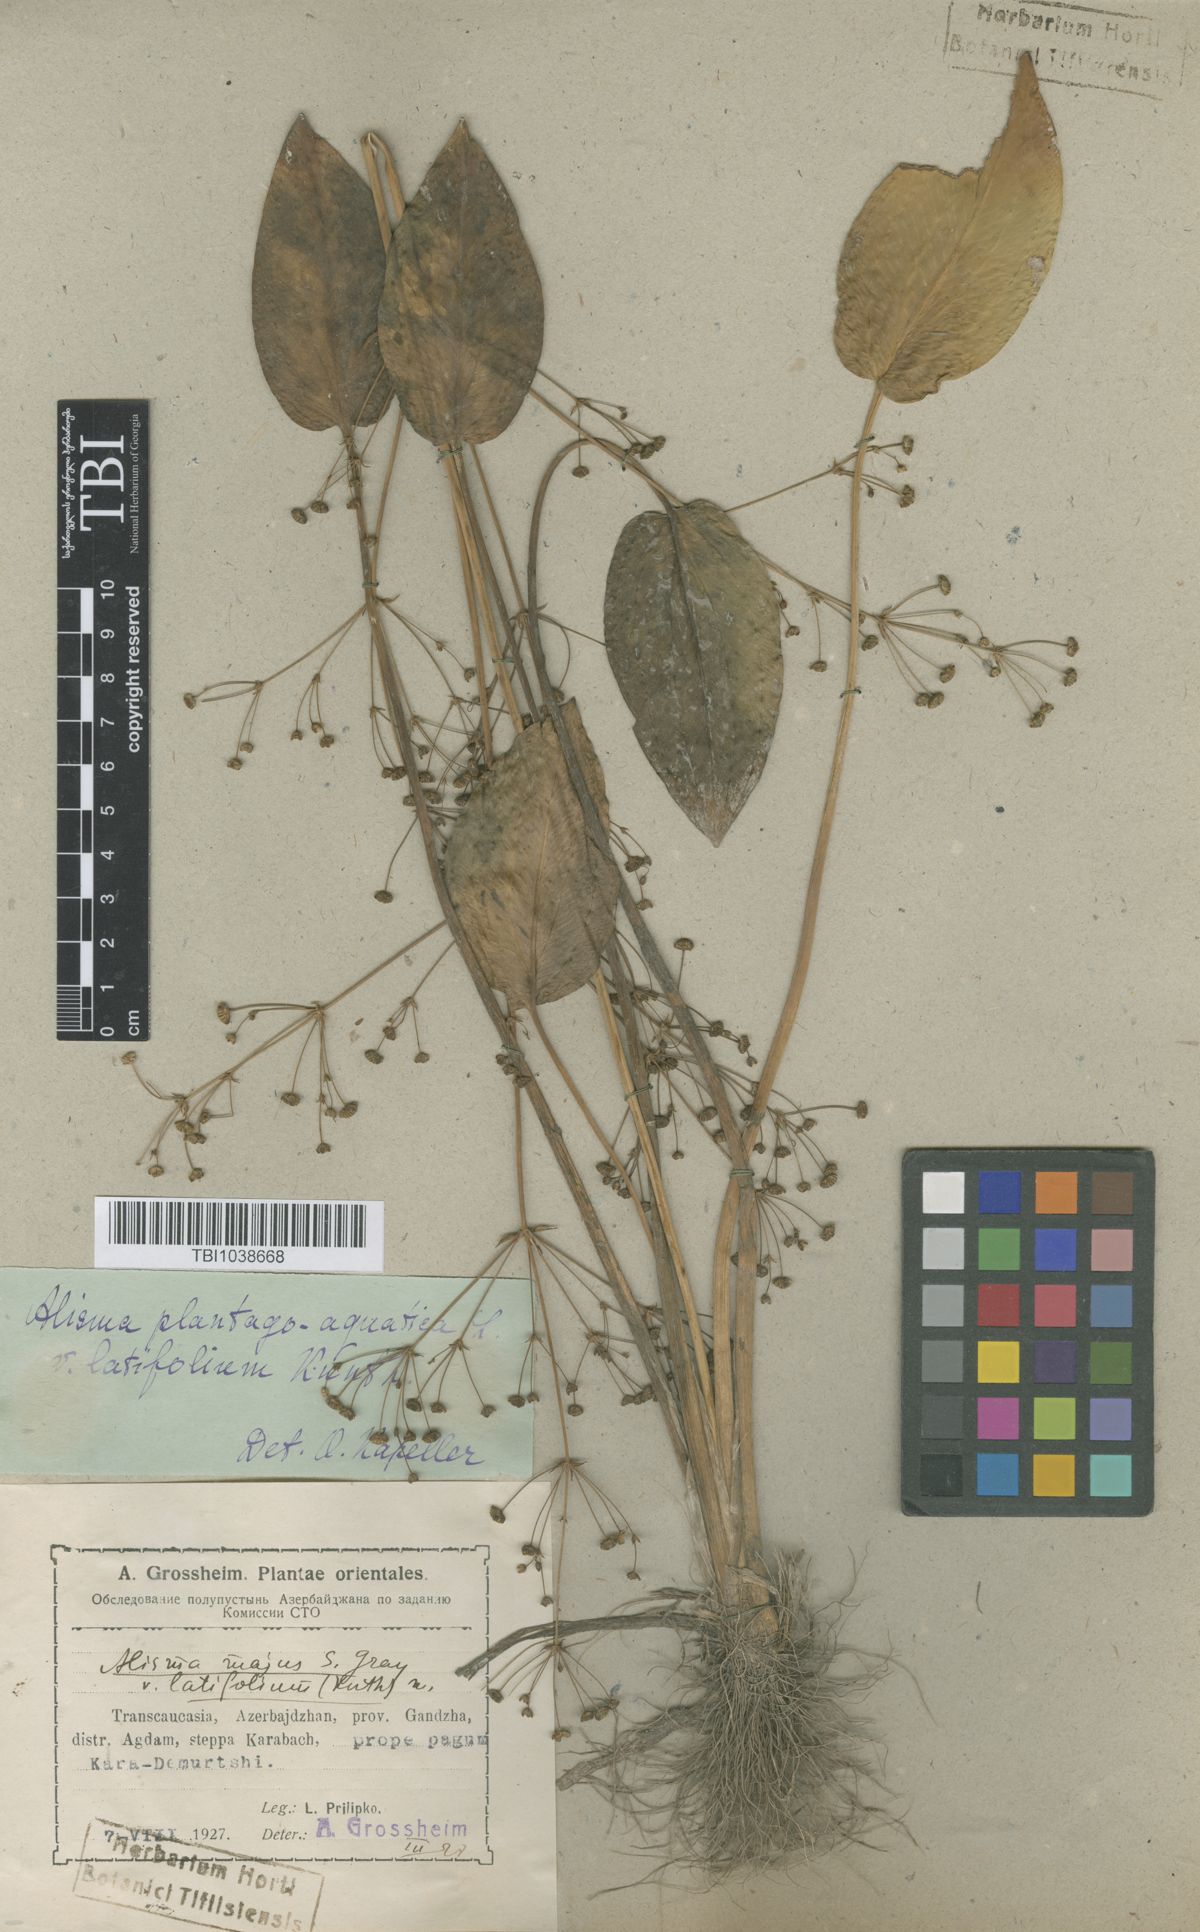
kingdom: Plantae
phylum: Tracheophyta
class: Liliopsida
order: Alismatales
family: Alismataceae
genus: Alisma
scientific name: Alisma plantago-aquatica
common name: Water-plantain
